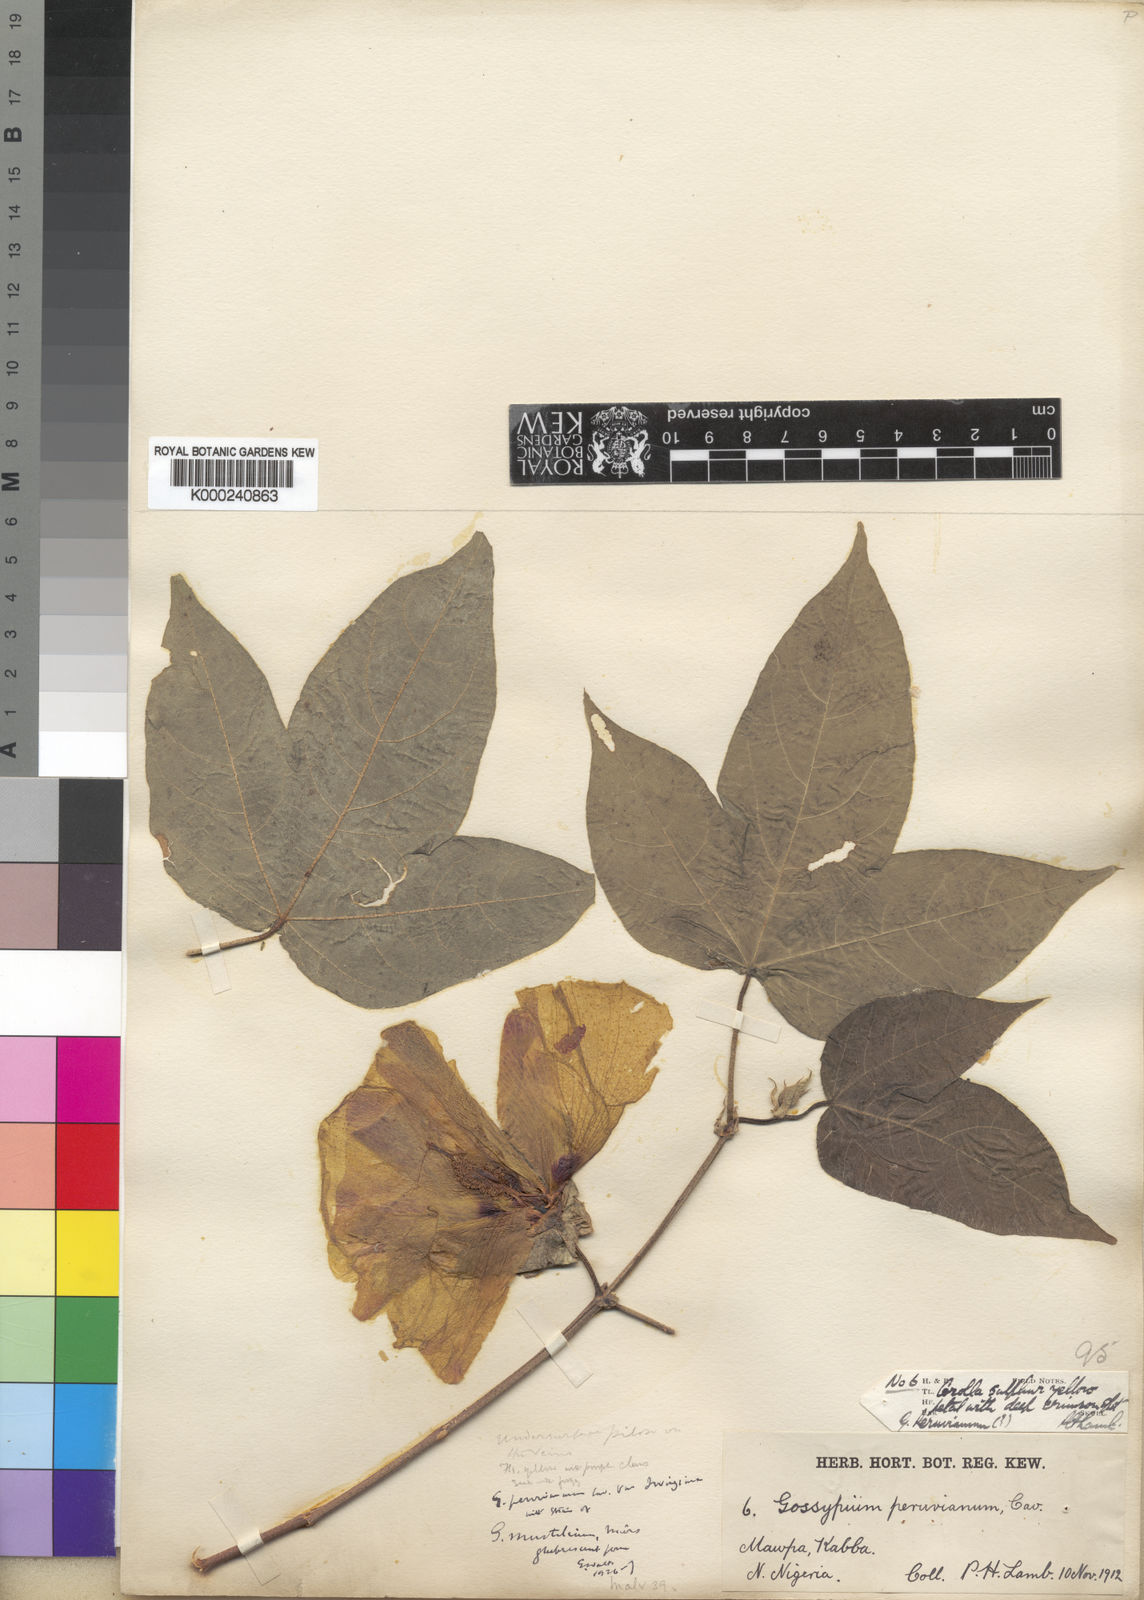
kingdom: Plantae
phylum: Tracheophyta
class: Magnoliopsida
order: Malvales
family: Malvaceae
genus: Gossypium
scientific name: Gossypium barbadense
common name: Creole cotton
